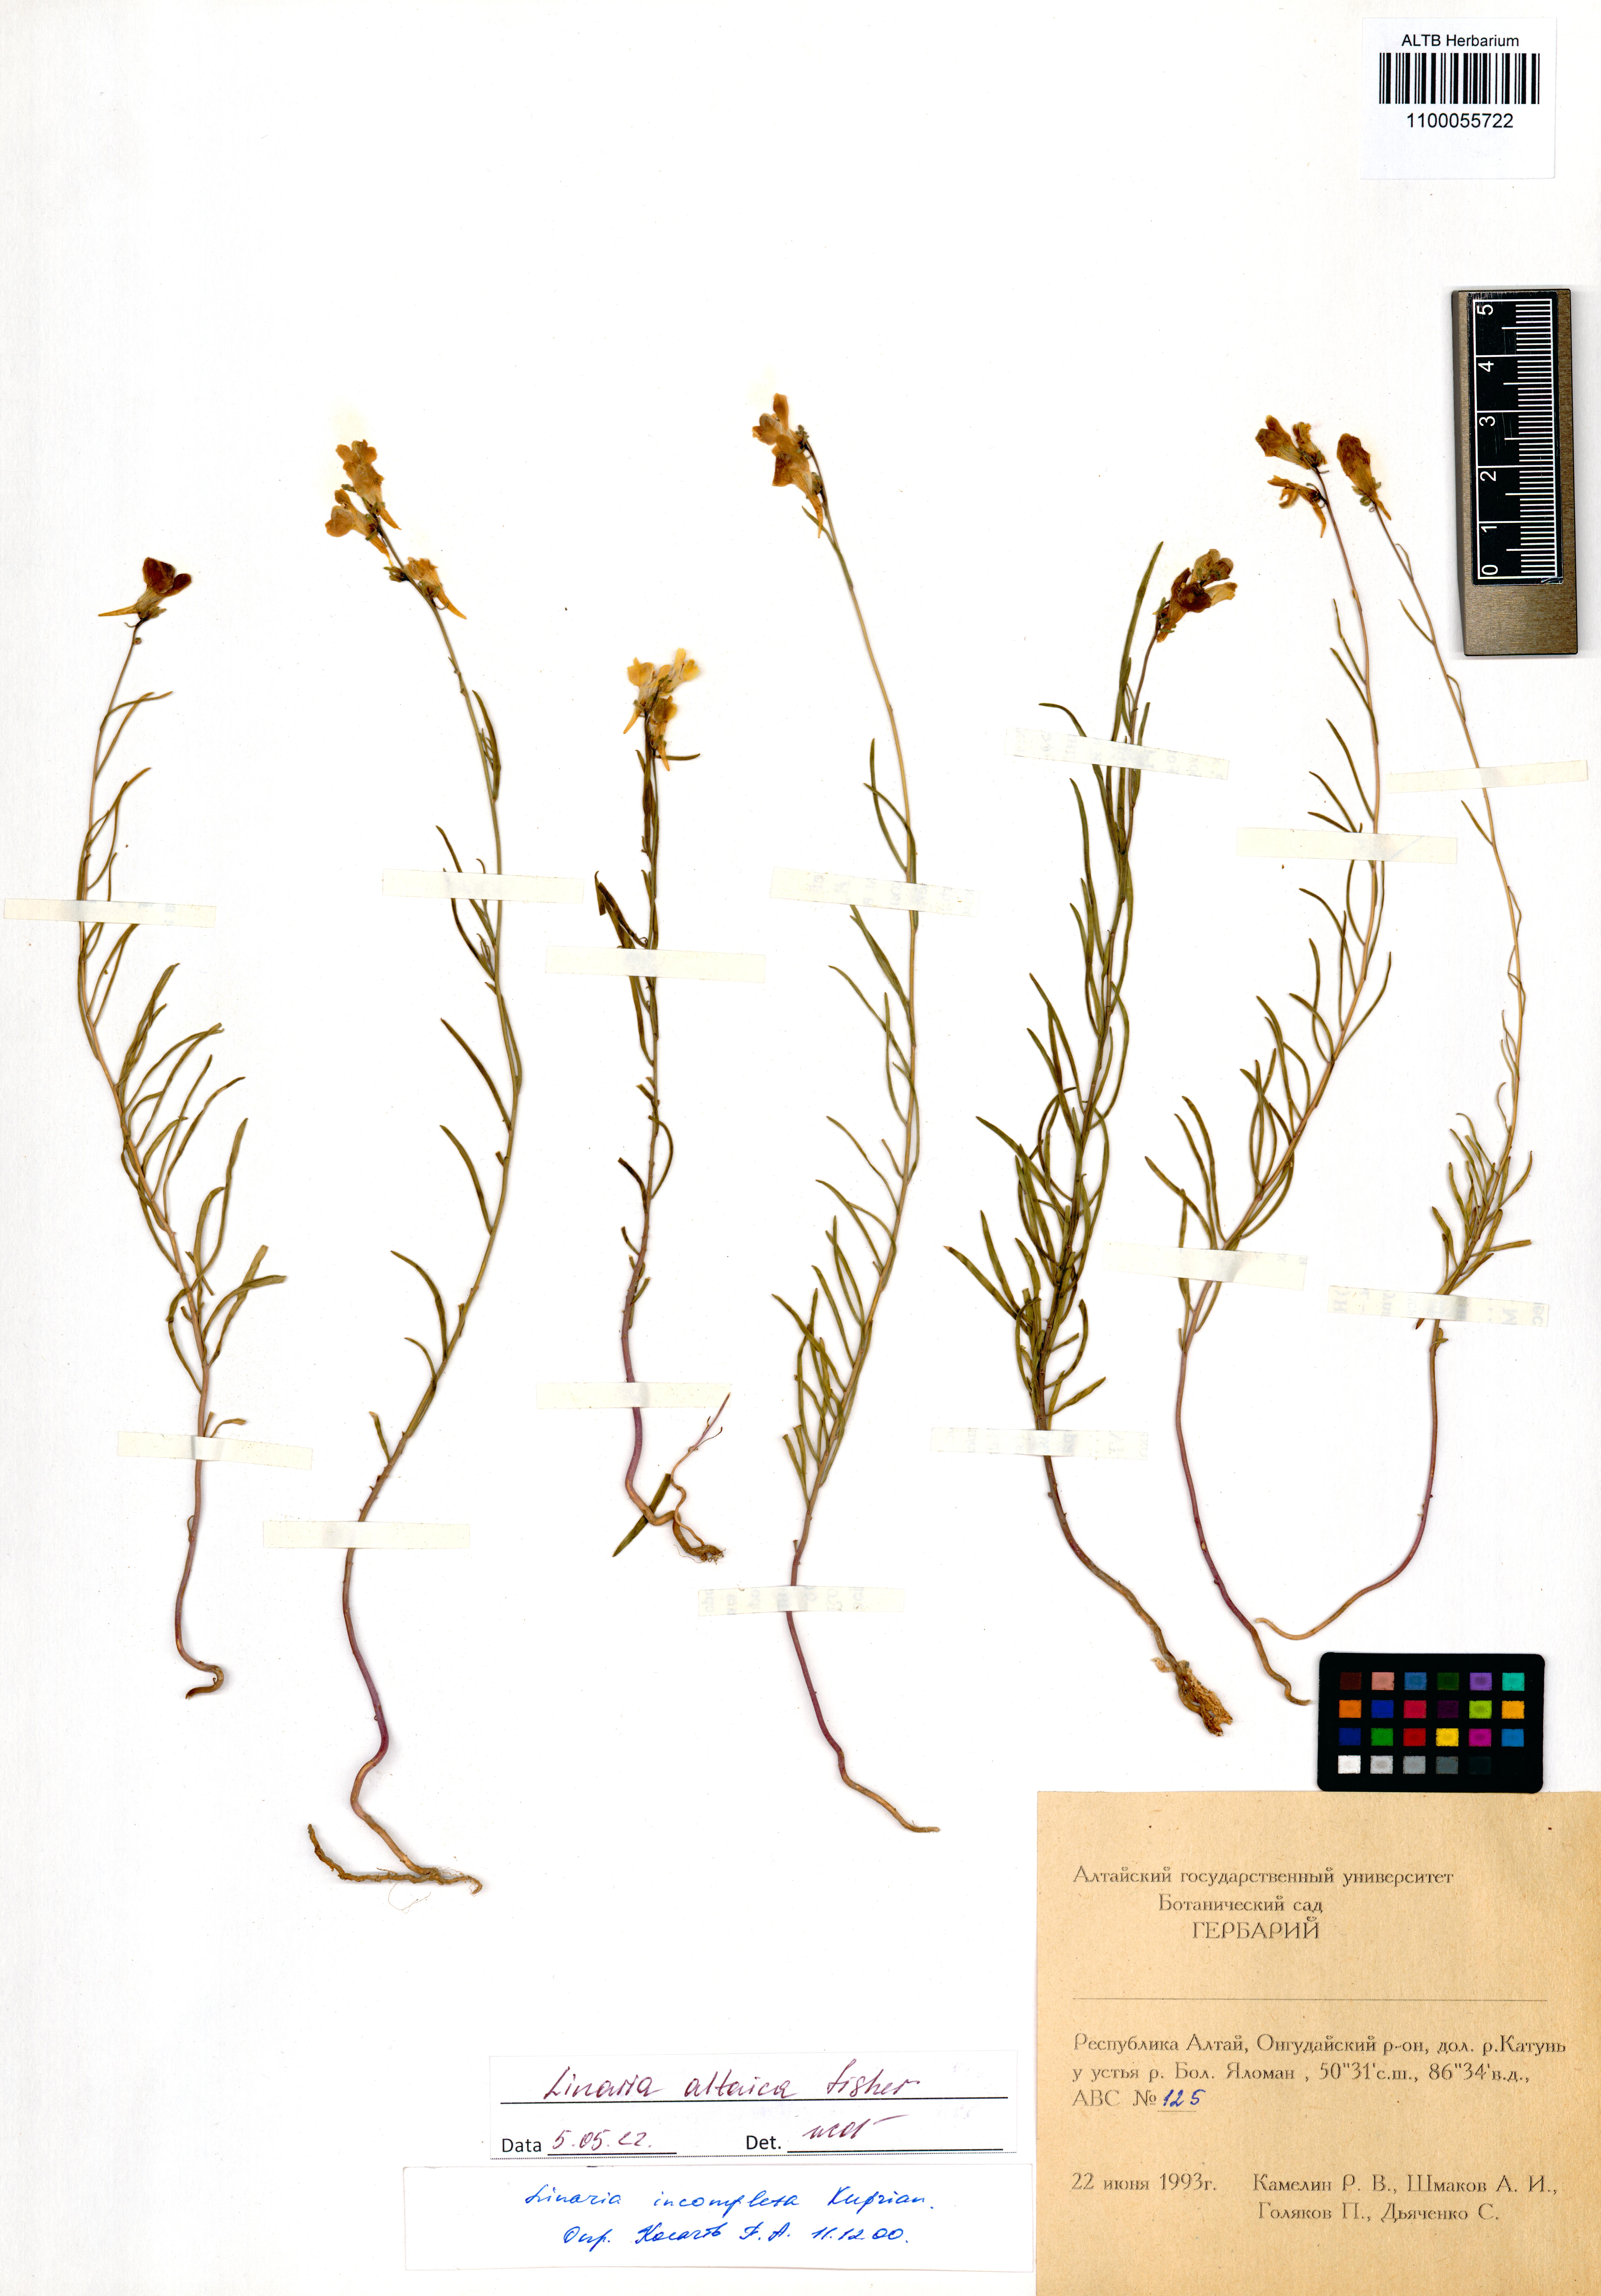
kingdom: Plantae
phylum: Tracheophyta
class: Magnoliopsida
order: Lamiales
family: Plantaginaceae
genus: Linaria
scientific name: Linaria altaica
